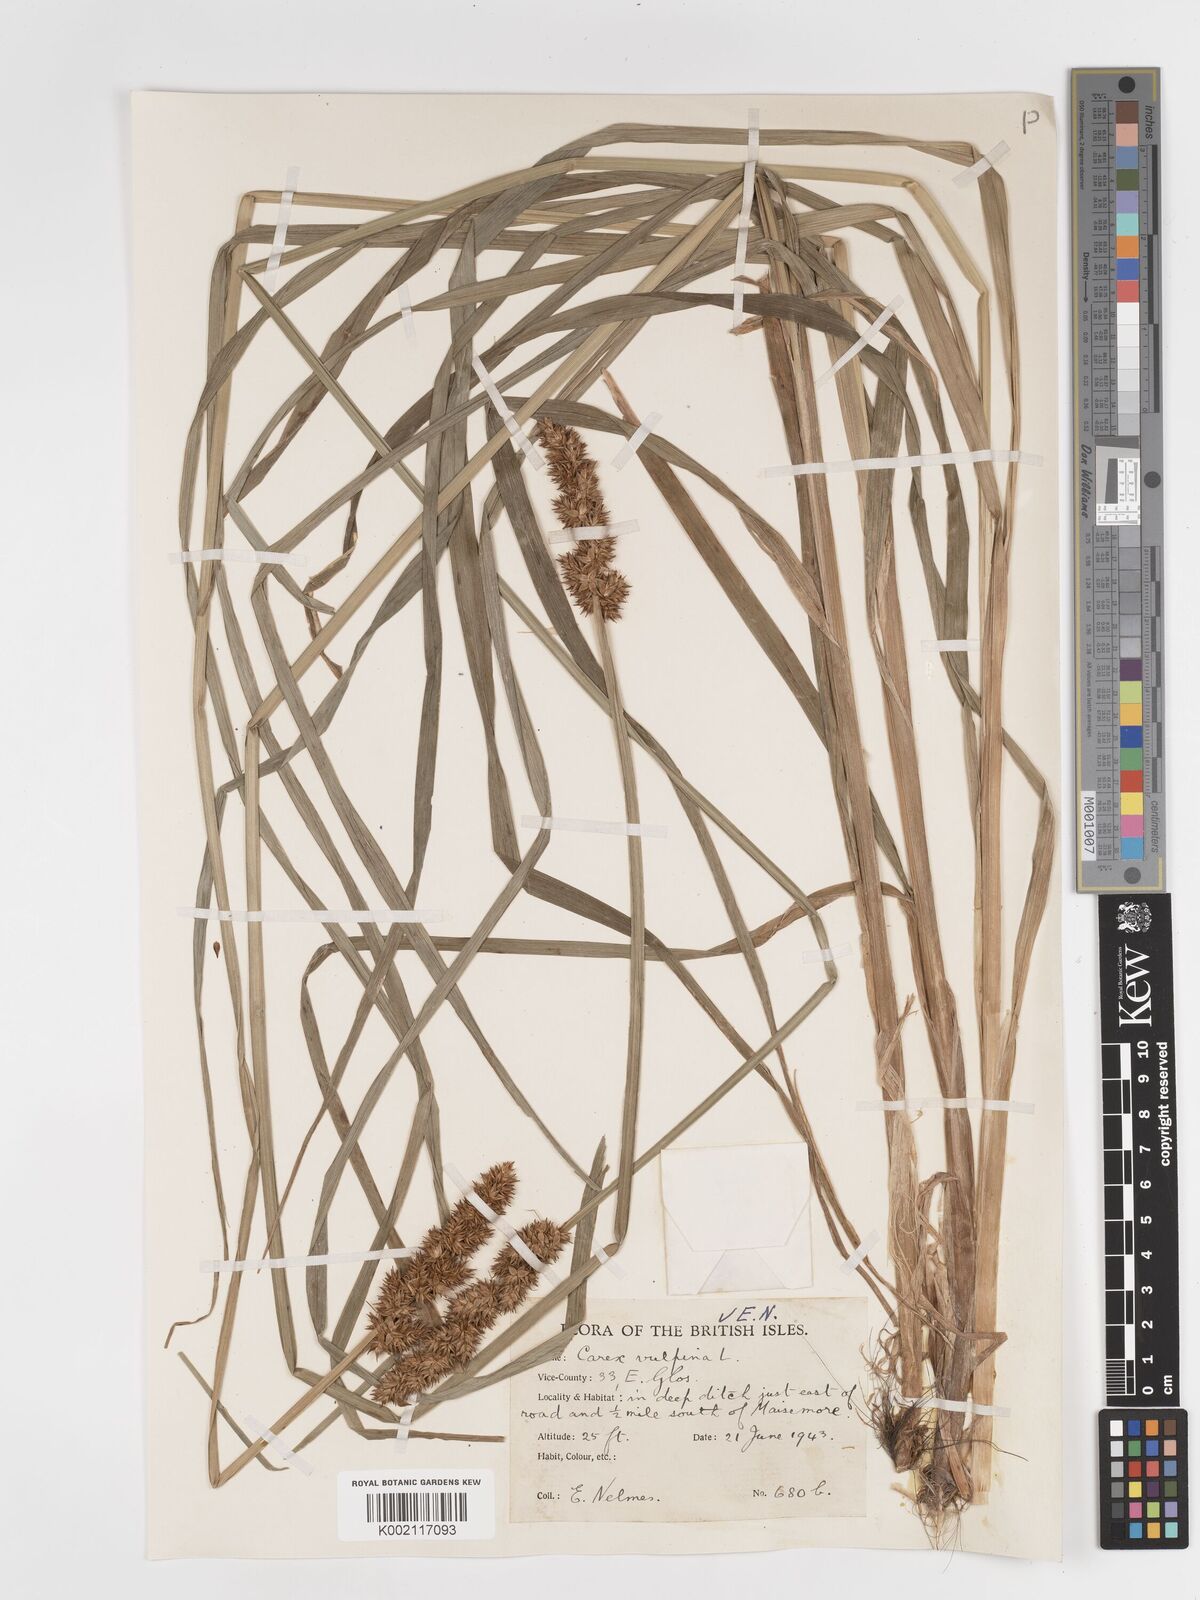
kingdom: Plantae
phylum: Tracheophyta
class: Liliopsida
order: Poales
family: Cyperaceae
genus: Carex
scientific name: Carex vulpina
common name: True fox-sedge
